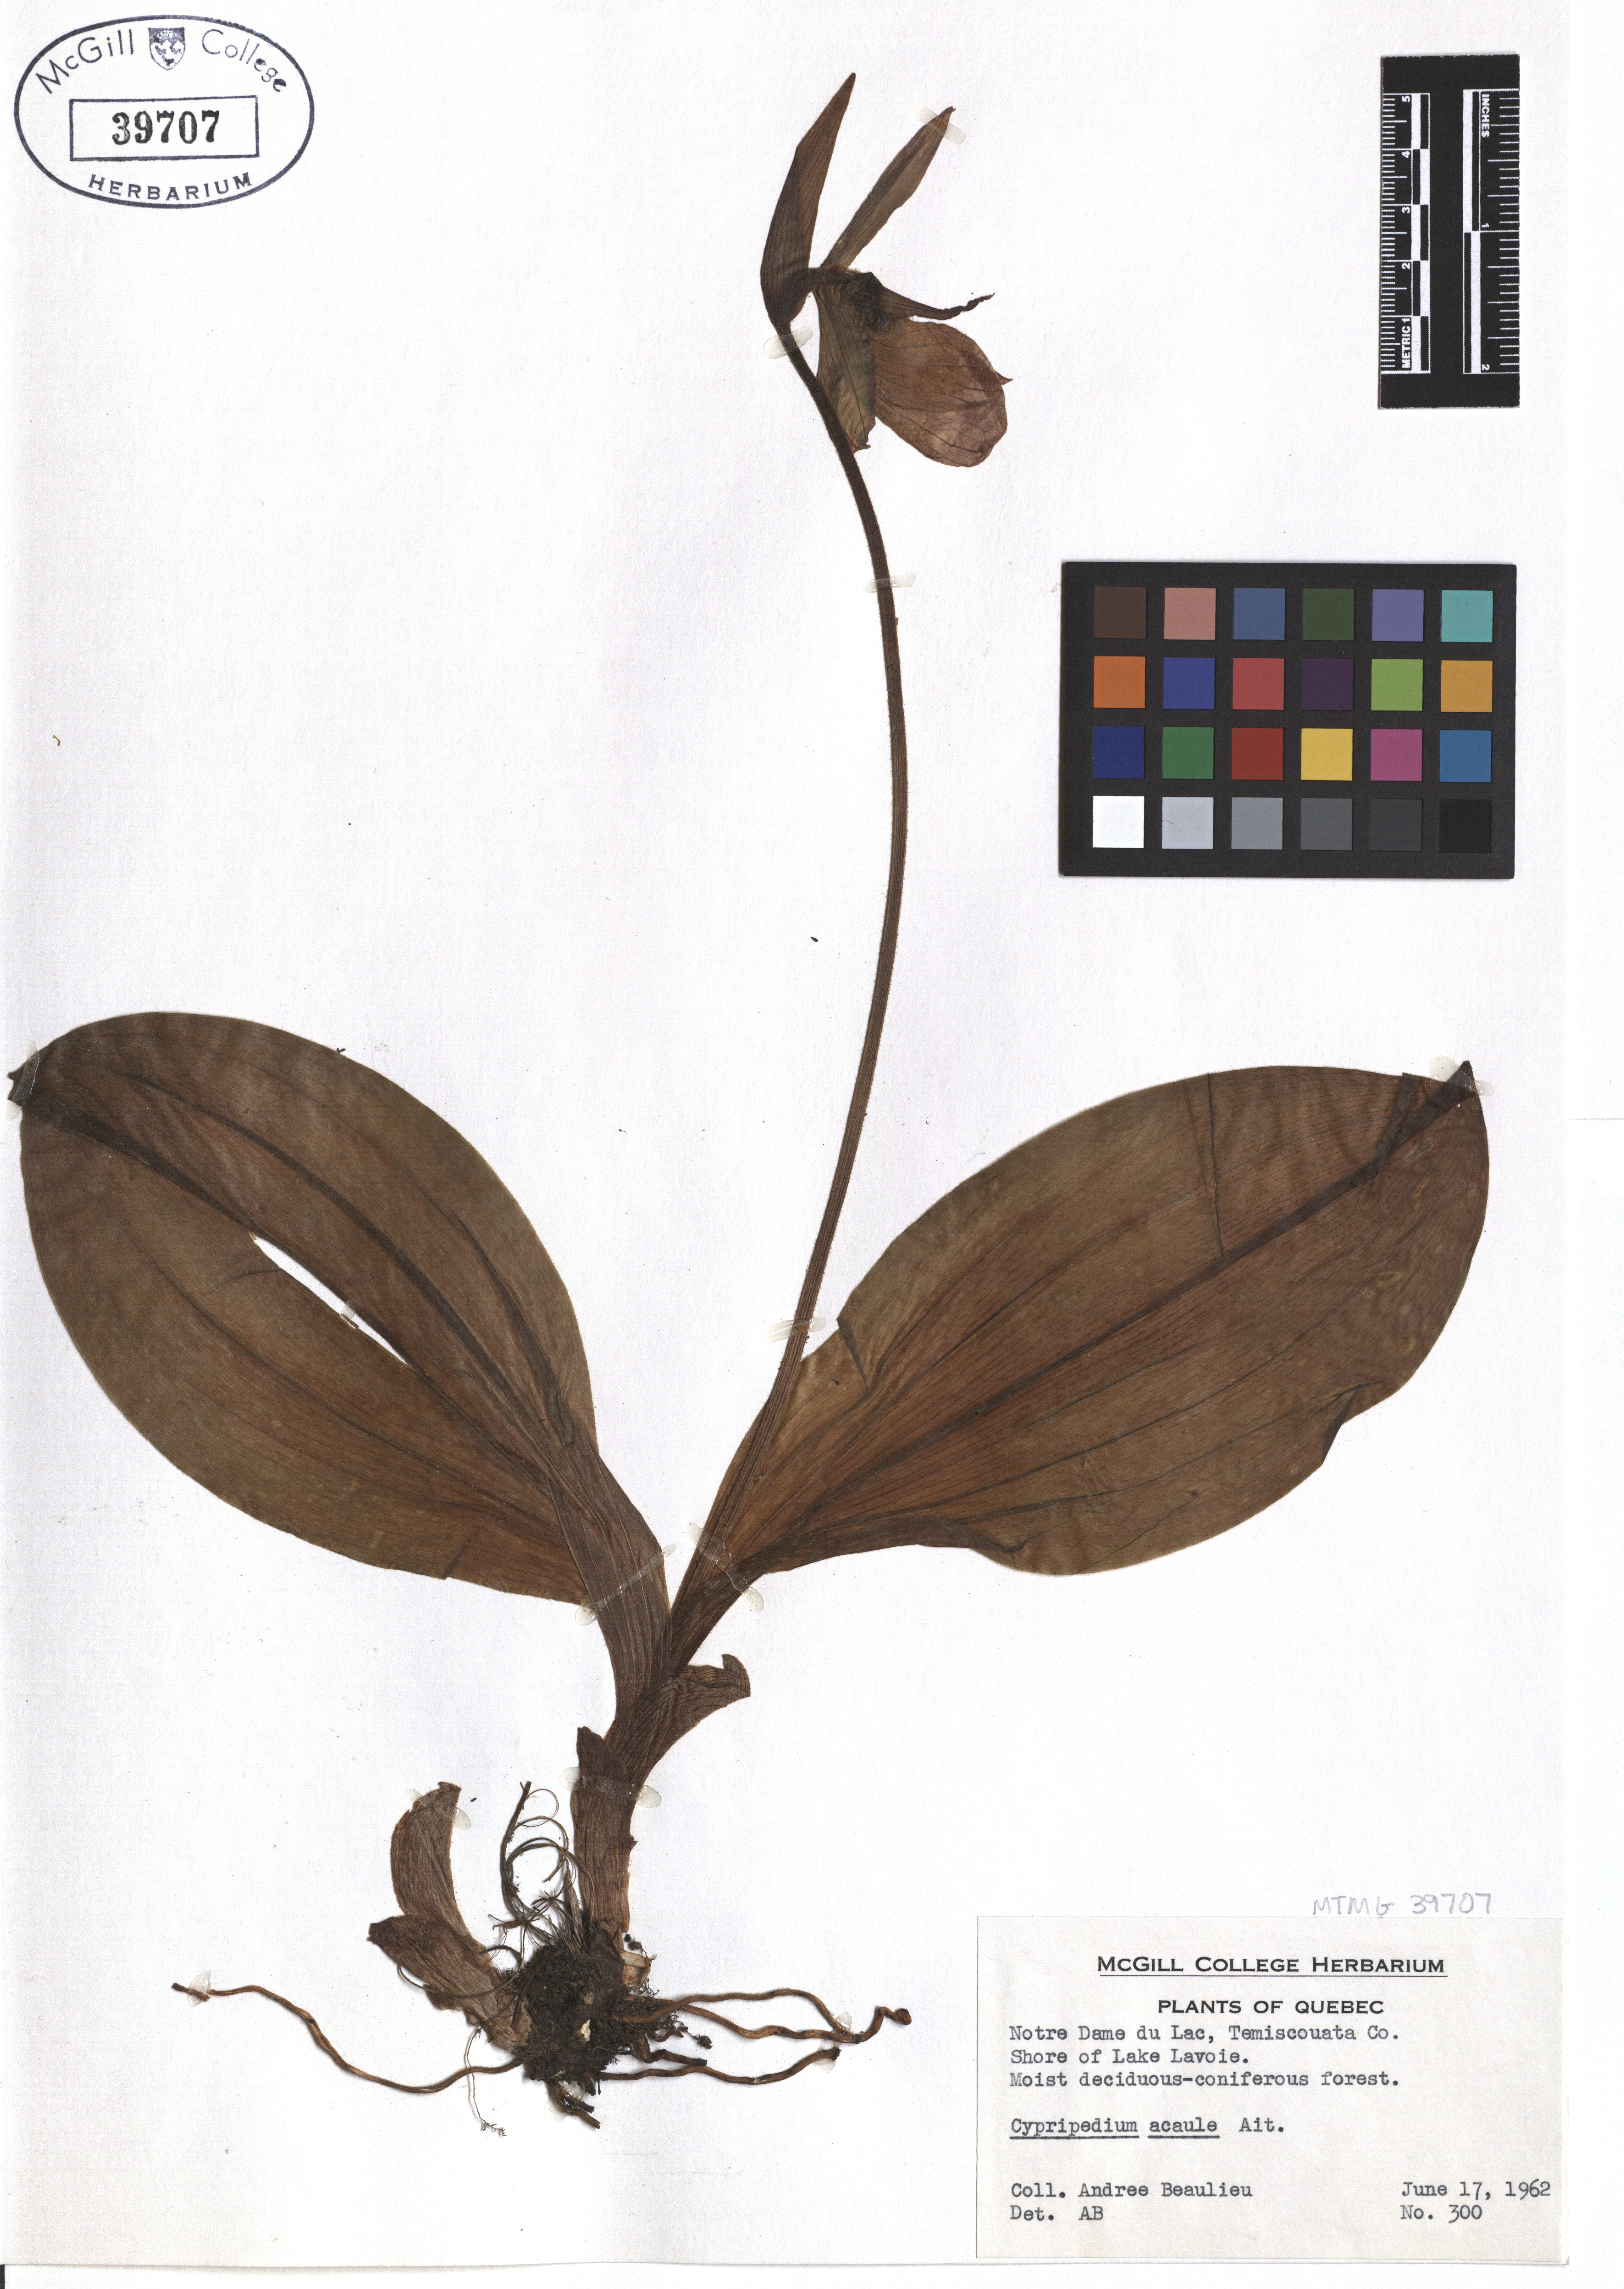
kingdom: Plantae
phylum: Tracheophyta
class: Liliopsida
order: Asparagales
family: Orchidaceae
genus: Cypripedium
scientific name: Cypripedium acaule
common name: Pink lady's-slipper
